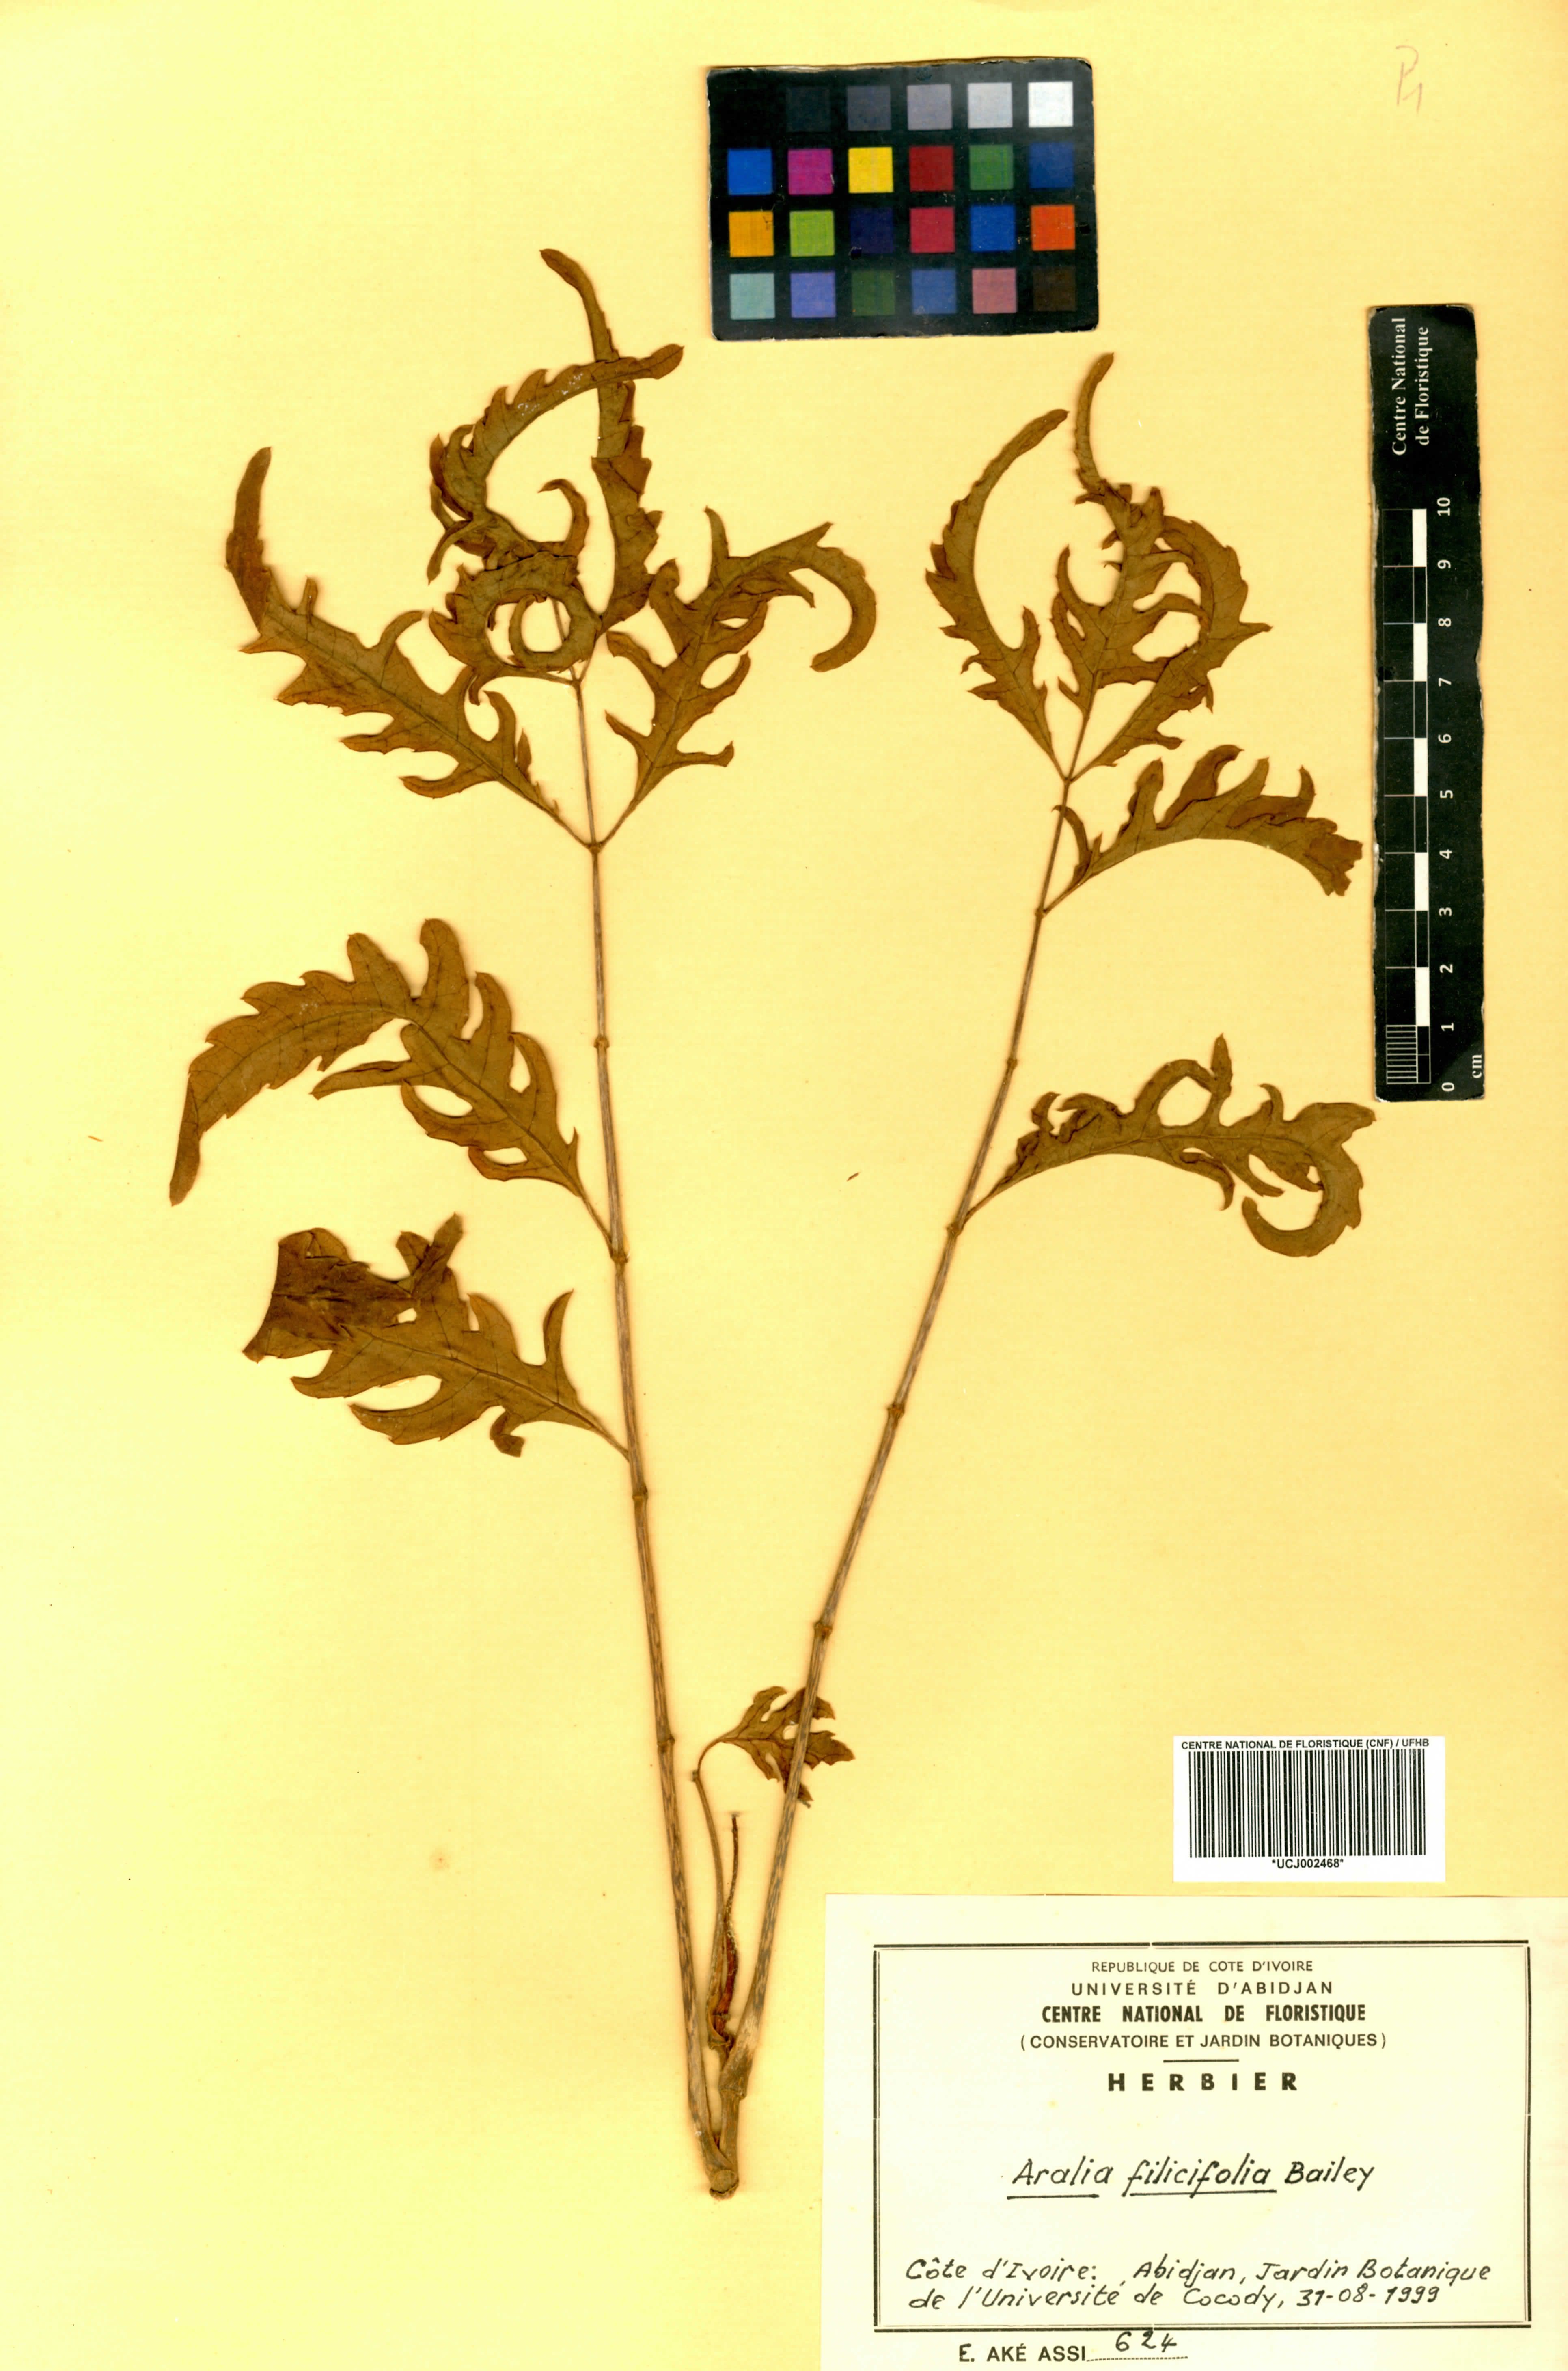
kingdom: Plantae
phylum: Tracheophyta
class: Magnoliopsida
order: Apiales
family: Araliaceae
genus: Aralia
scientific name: Aralia
